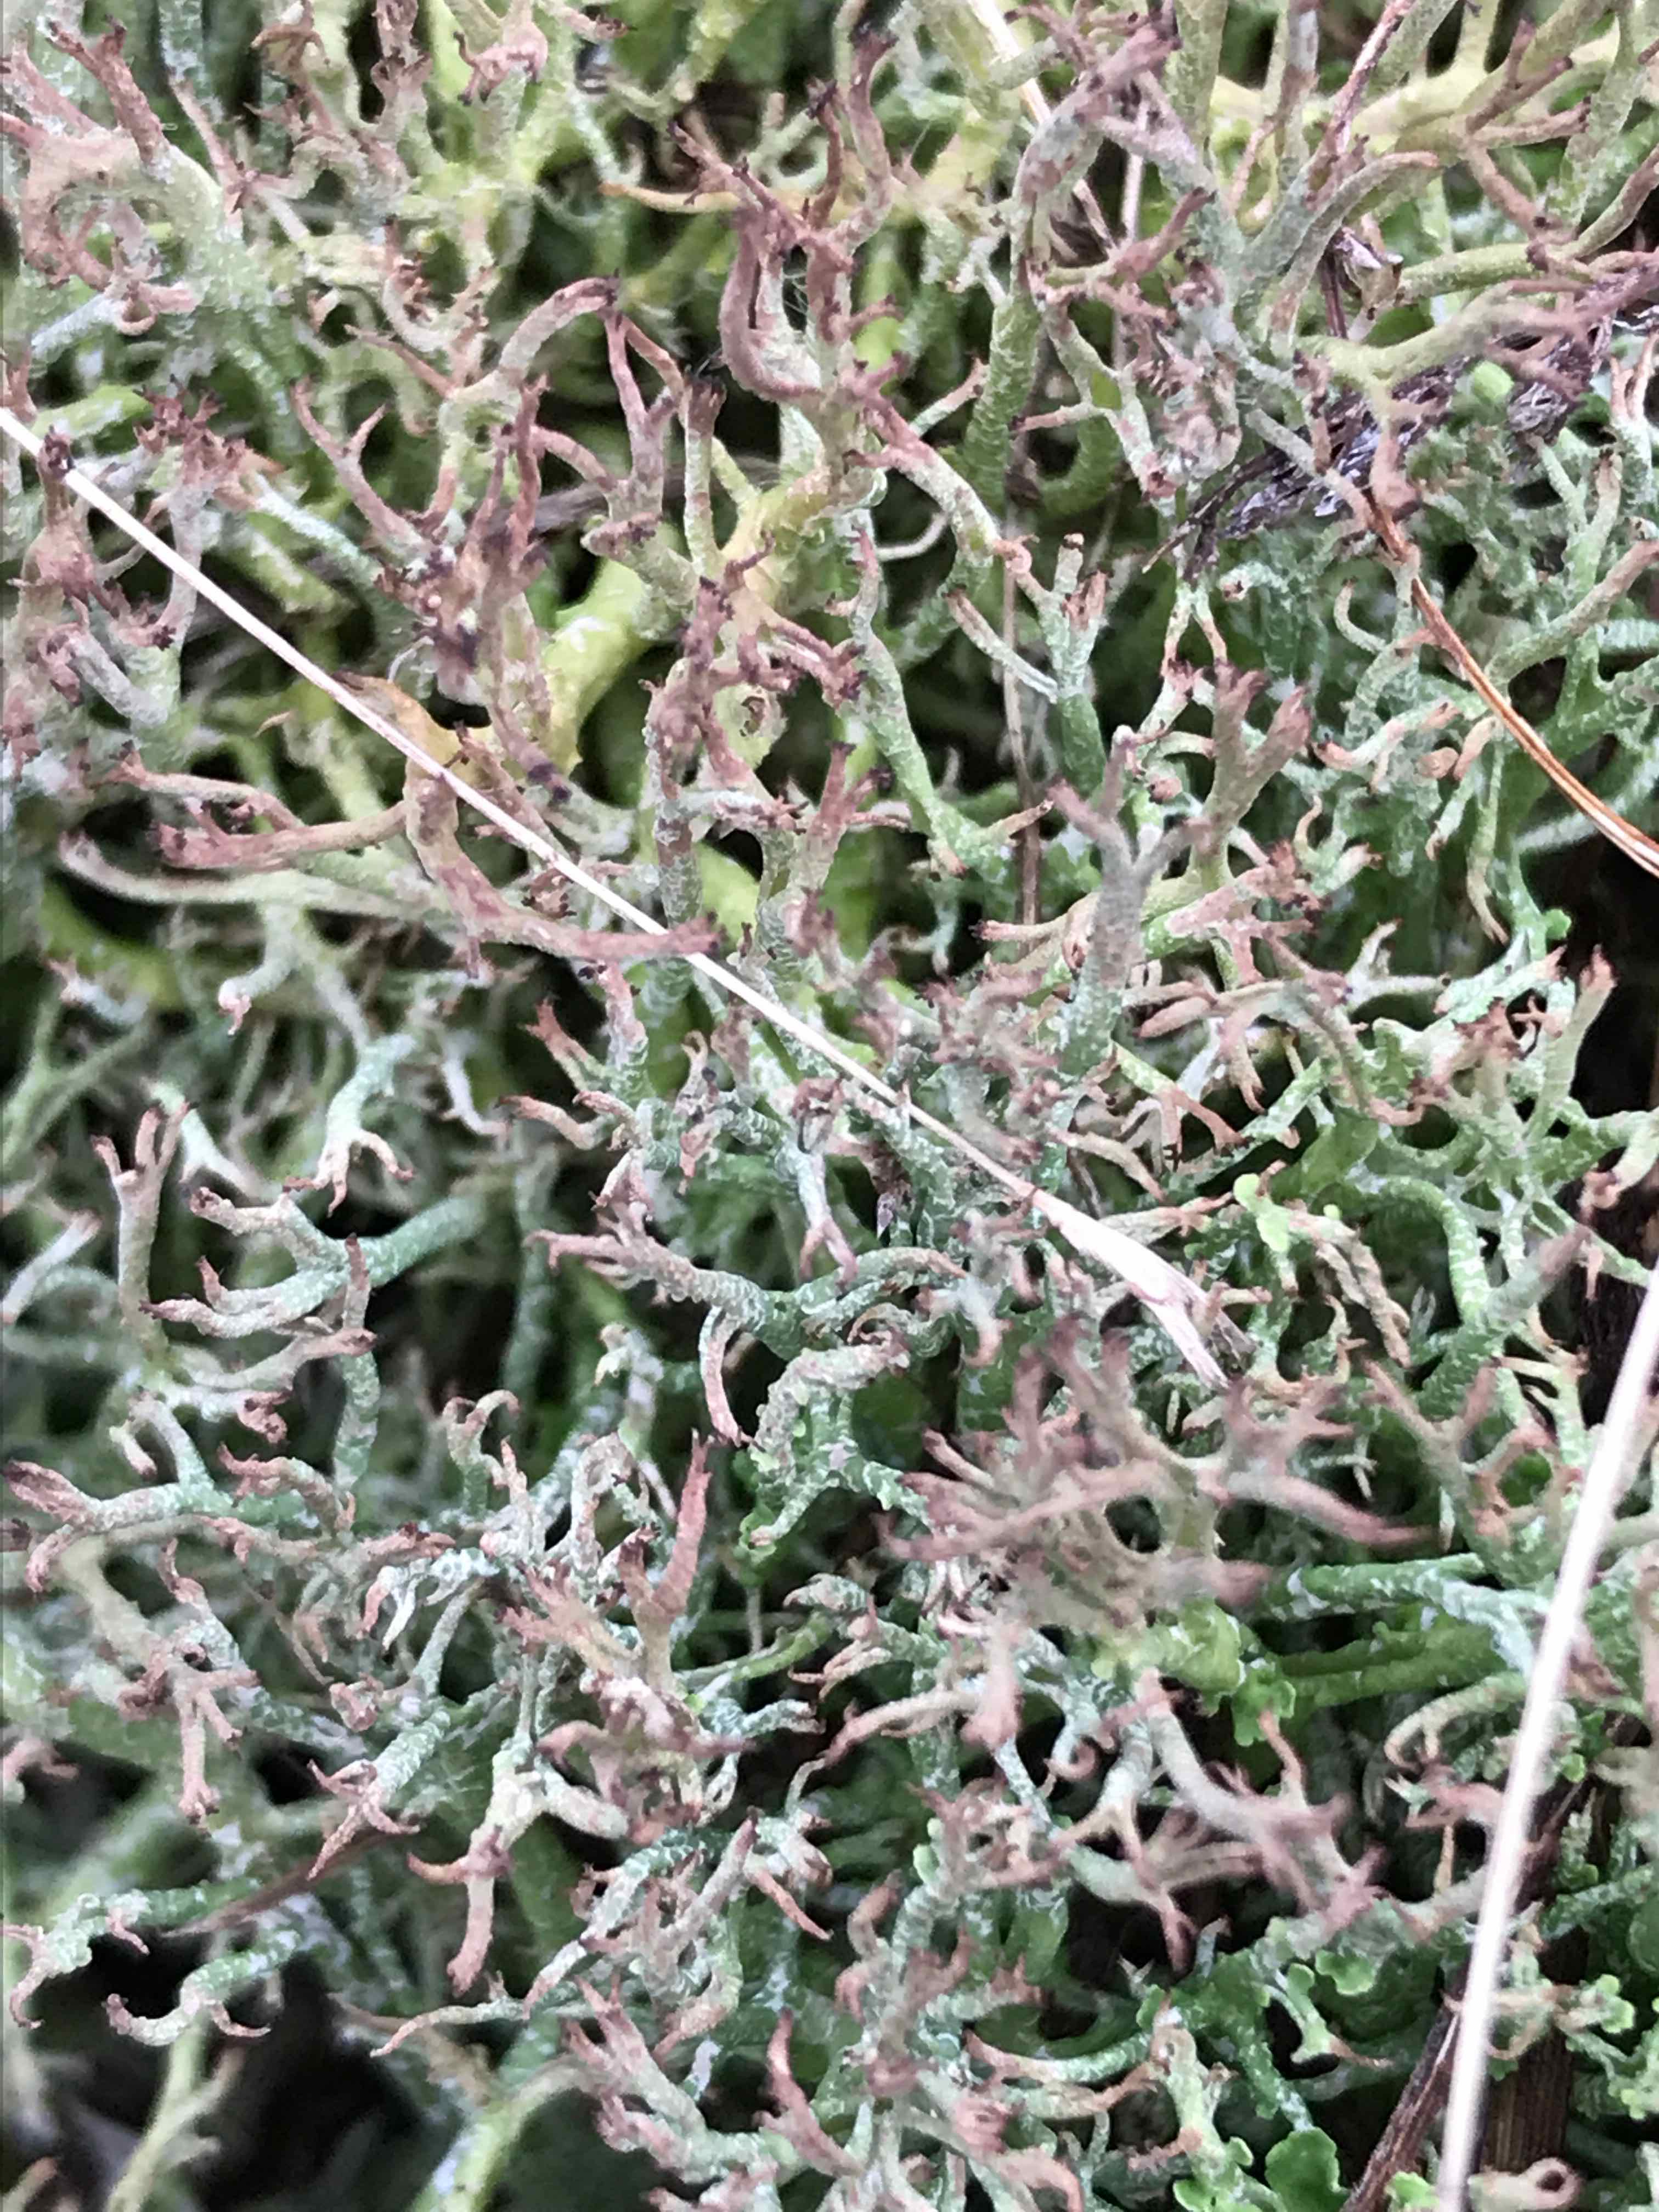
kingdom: Fungi
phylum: Ascomycota
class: Lecanoromycetes
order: Lecanorales
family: Cladoniaceae
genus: Cladonia
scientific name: Cladonia rangiformis
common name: spættet bægerlav
